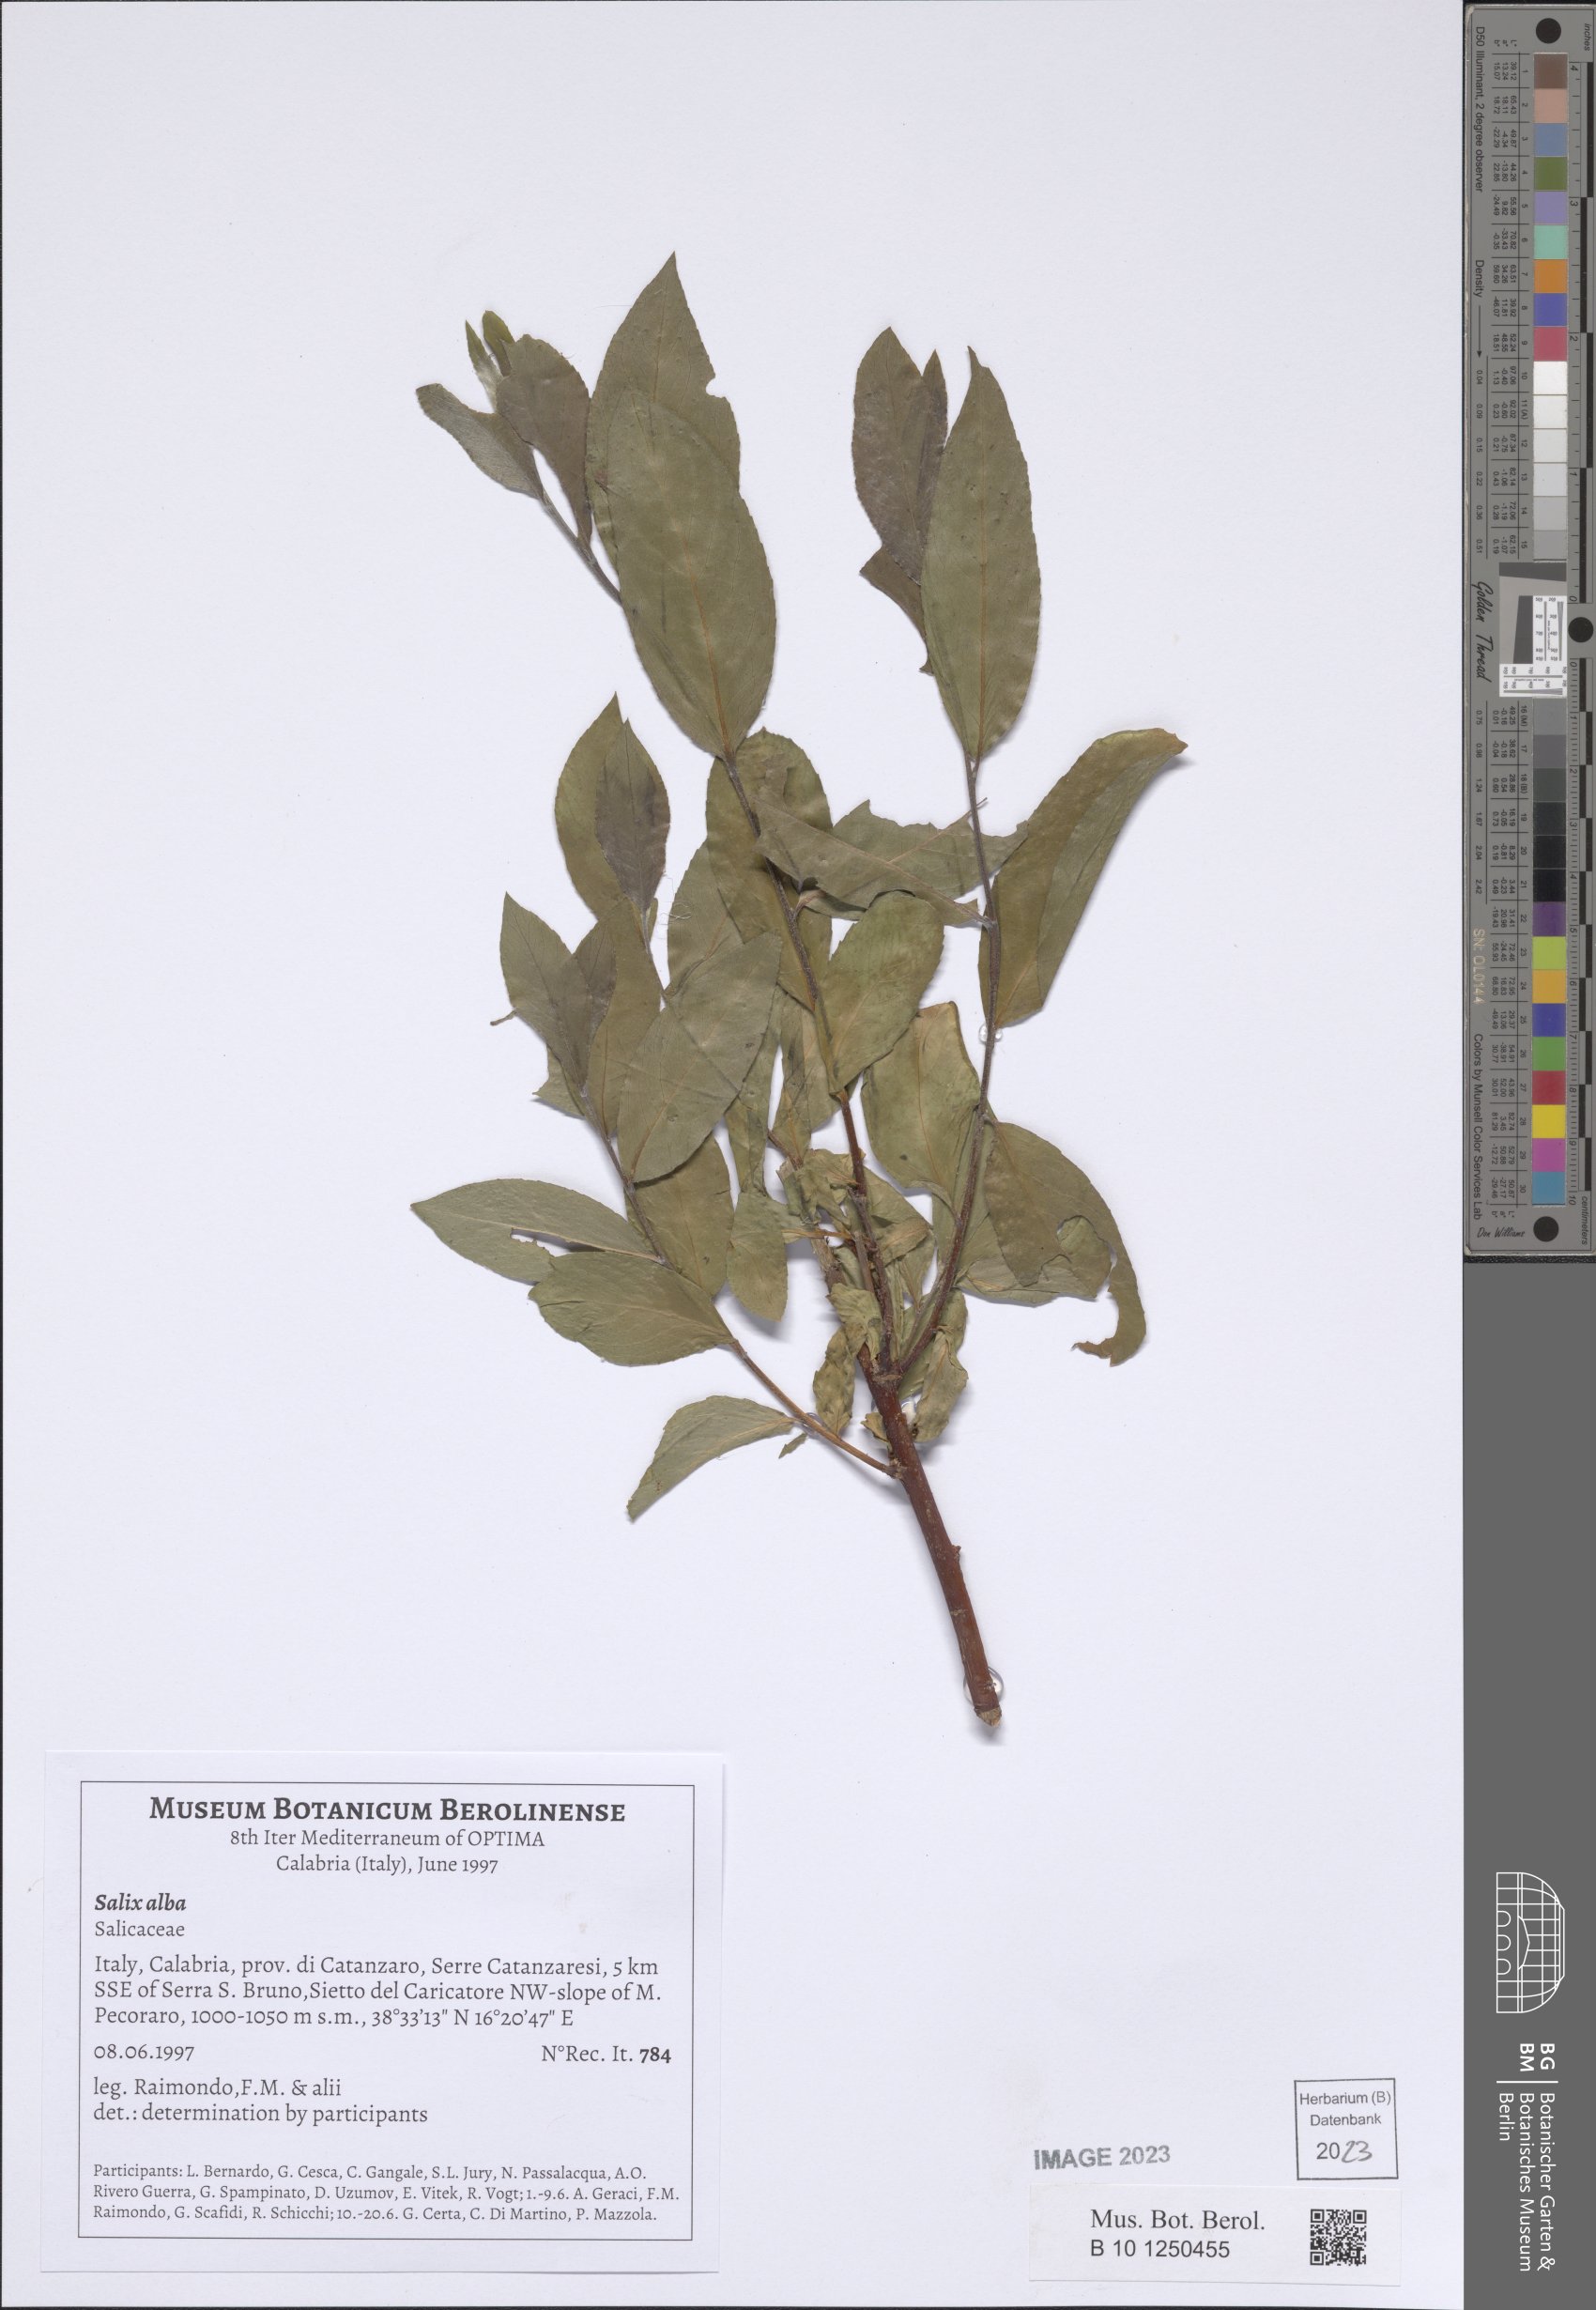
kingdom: Plantae
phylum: Tracheophyta
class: Magnoliopsida
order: Malpighiales
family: Salicaceae
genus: Salix
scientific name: Salix alba
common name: White willow
